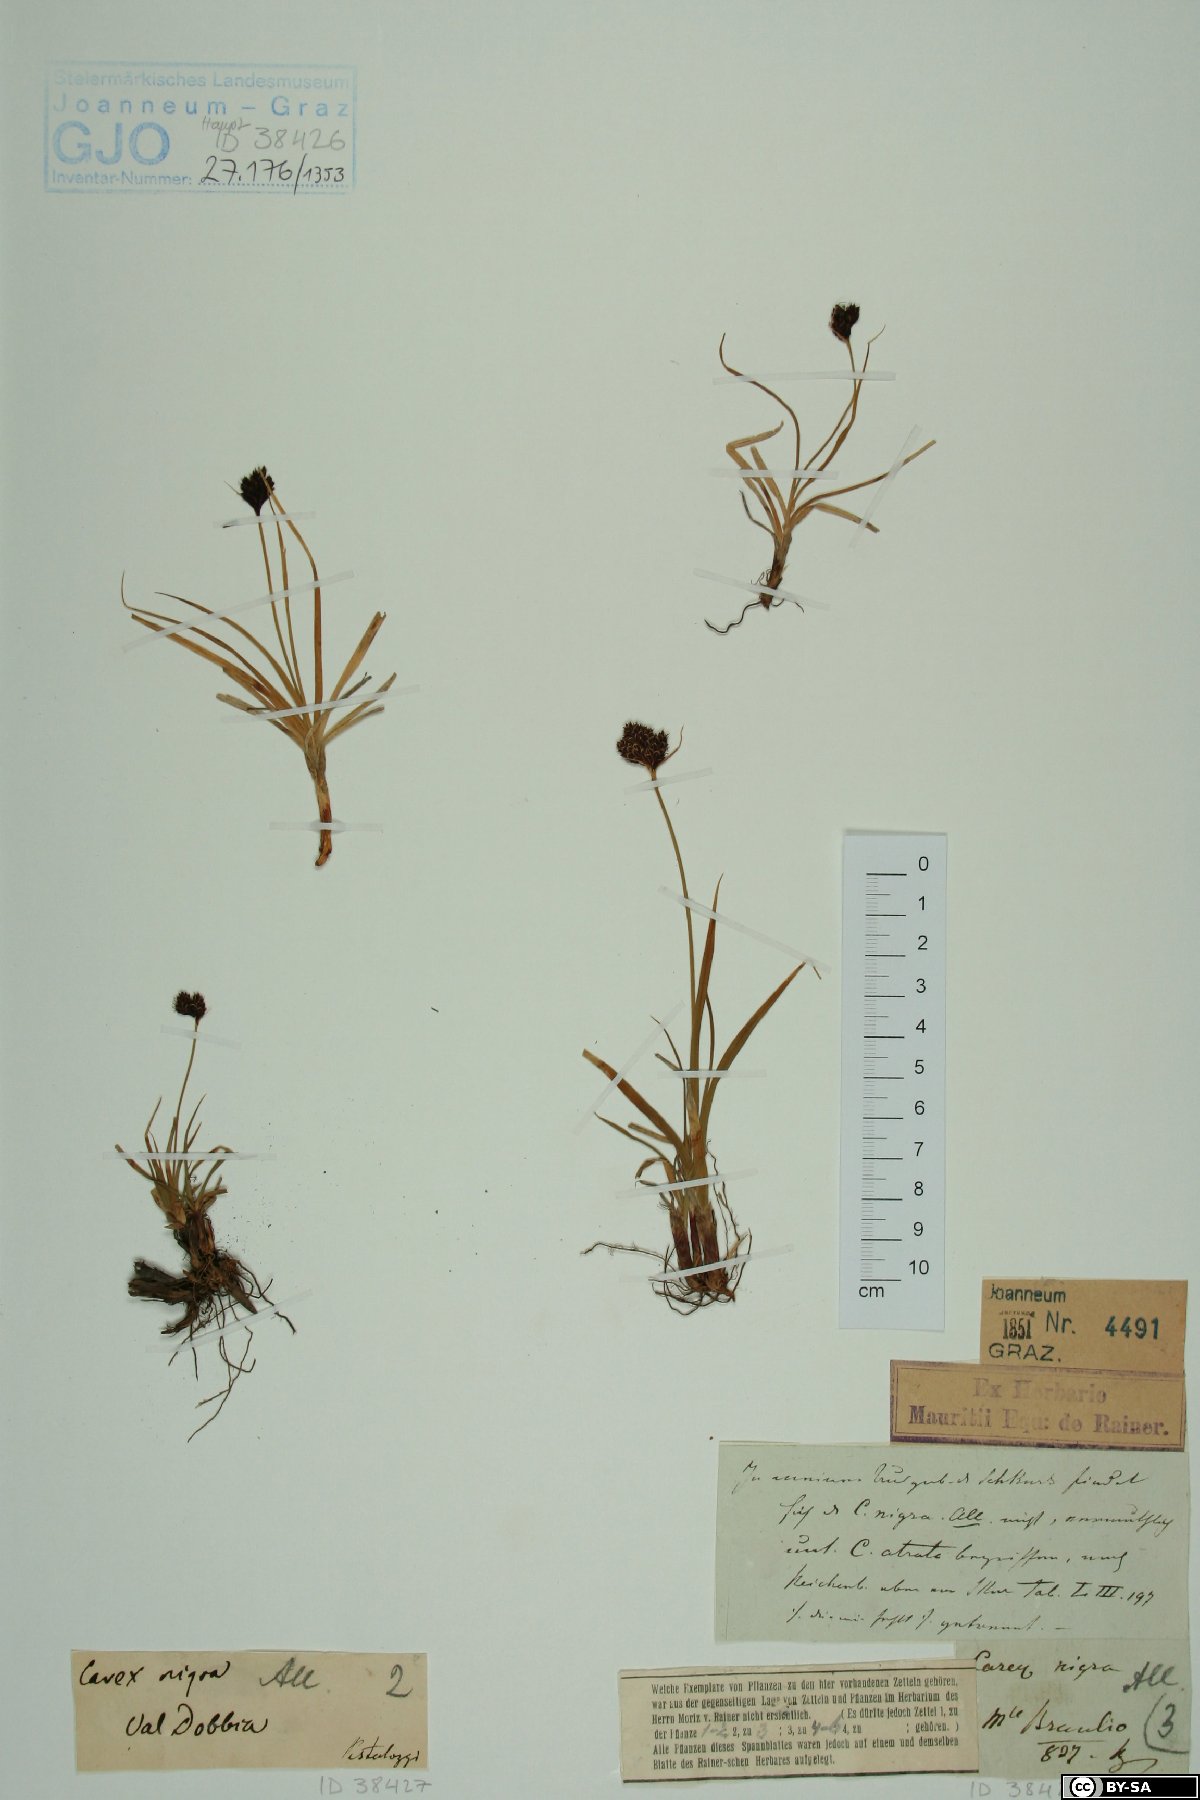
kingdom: Plantae
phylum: Tracheophyta
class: Liliopsida
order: Poales
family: Cyperaceae
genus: Carex
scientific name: Carex nigra
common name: Common sedge
